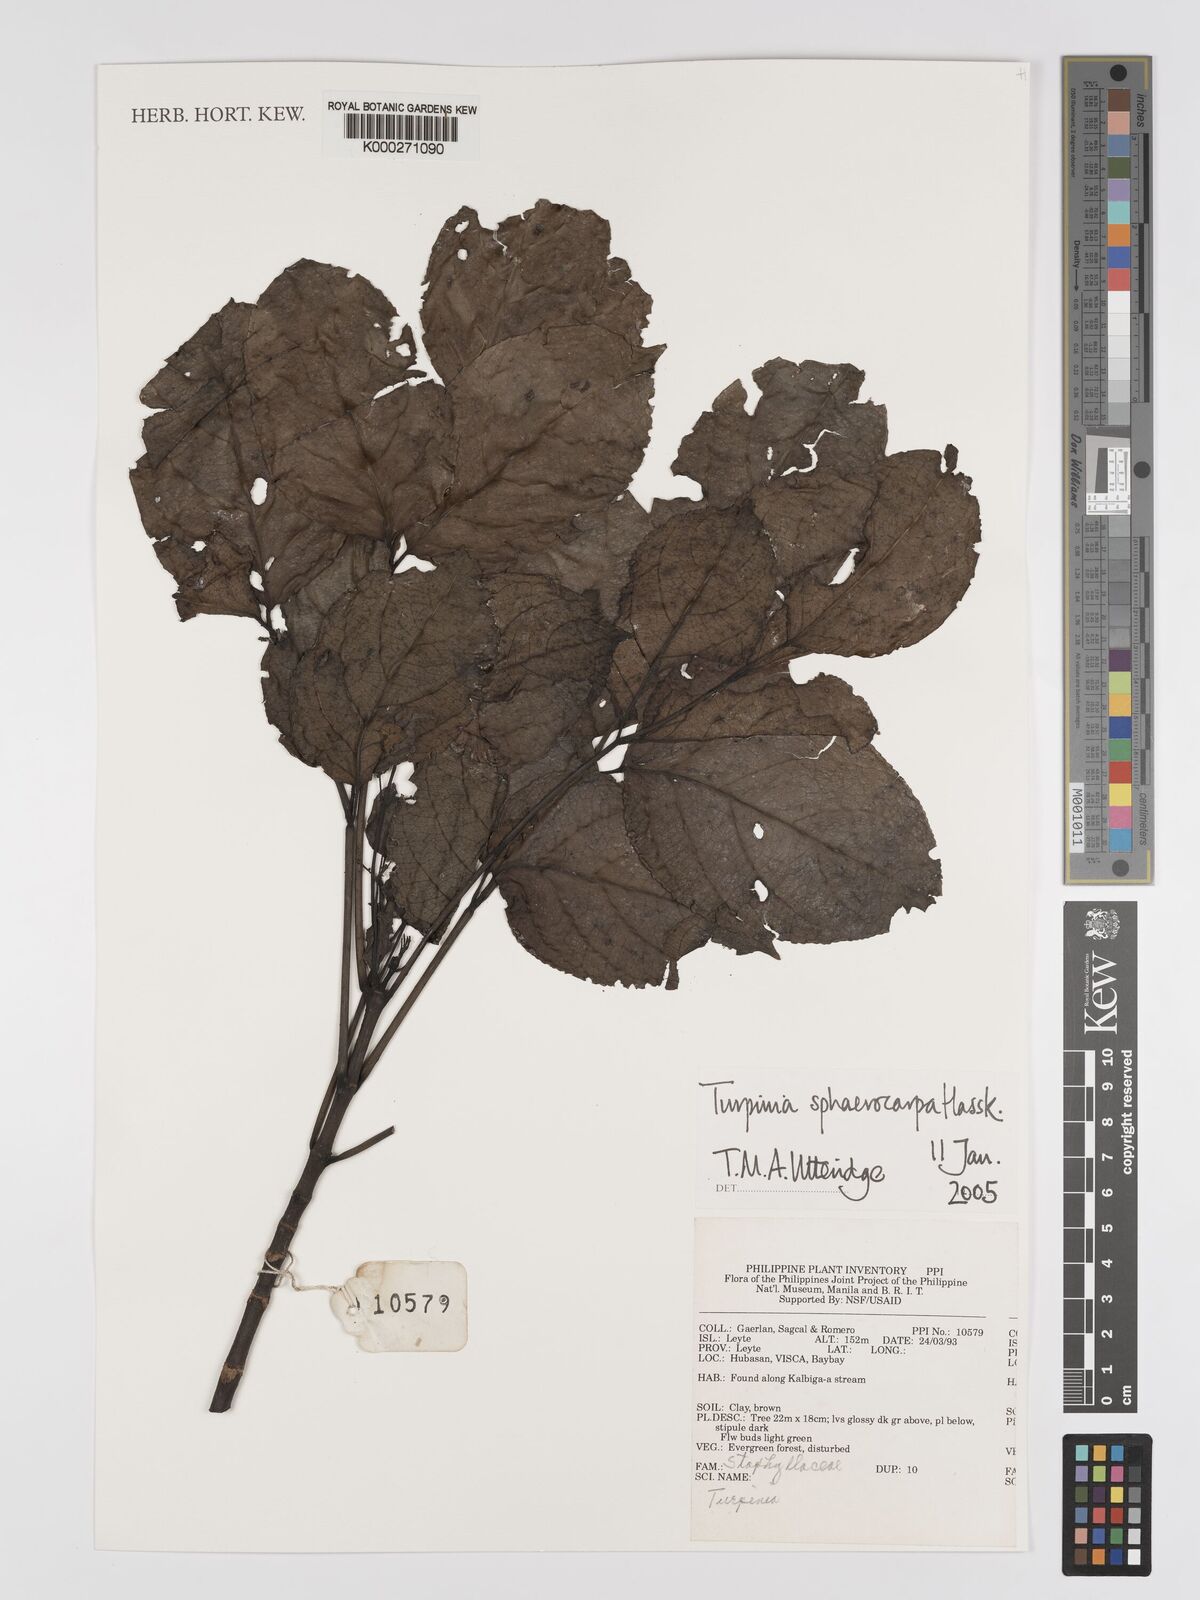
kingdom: Plantae
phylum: Tracheophyta
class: Magnoliopsida
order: Crossosomatales
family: Staphyleaceae
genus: Dalrympelea
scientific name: Dalrympelea sphaerocarpa
